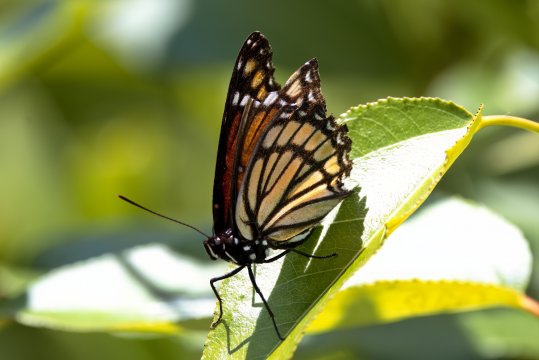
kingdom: Animalia
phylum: Arthropoda
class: Insecta
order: Lepidoptera
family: Nymphalidae
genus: Limenitis
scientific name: Limenitis archippus
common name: Viceroy
